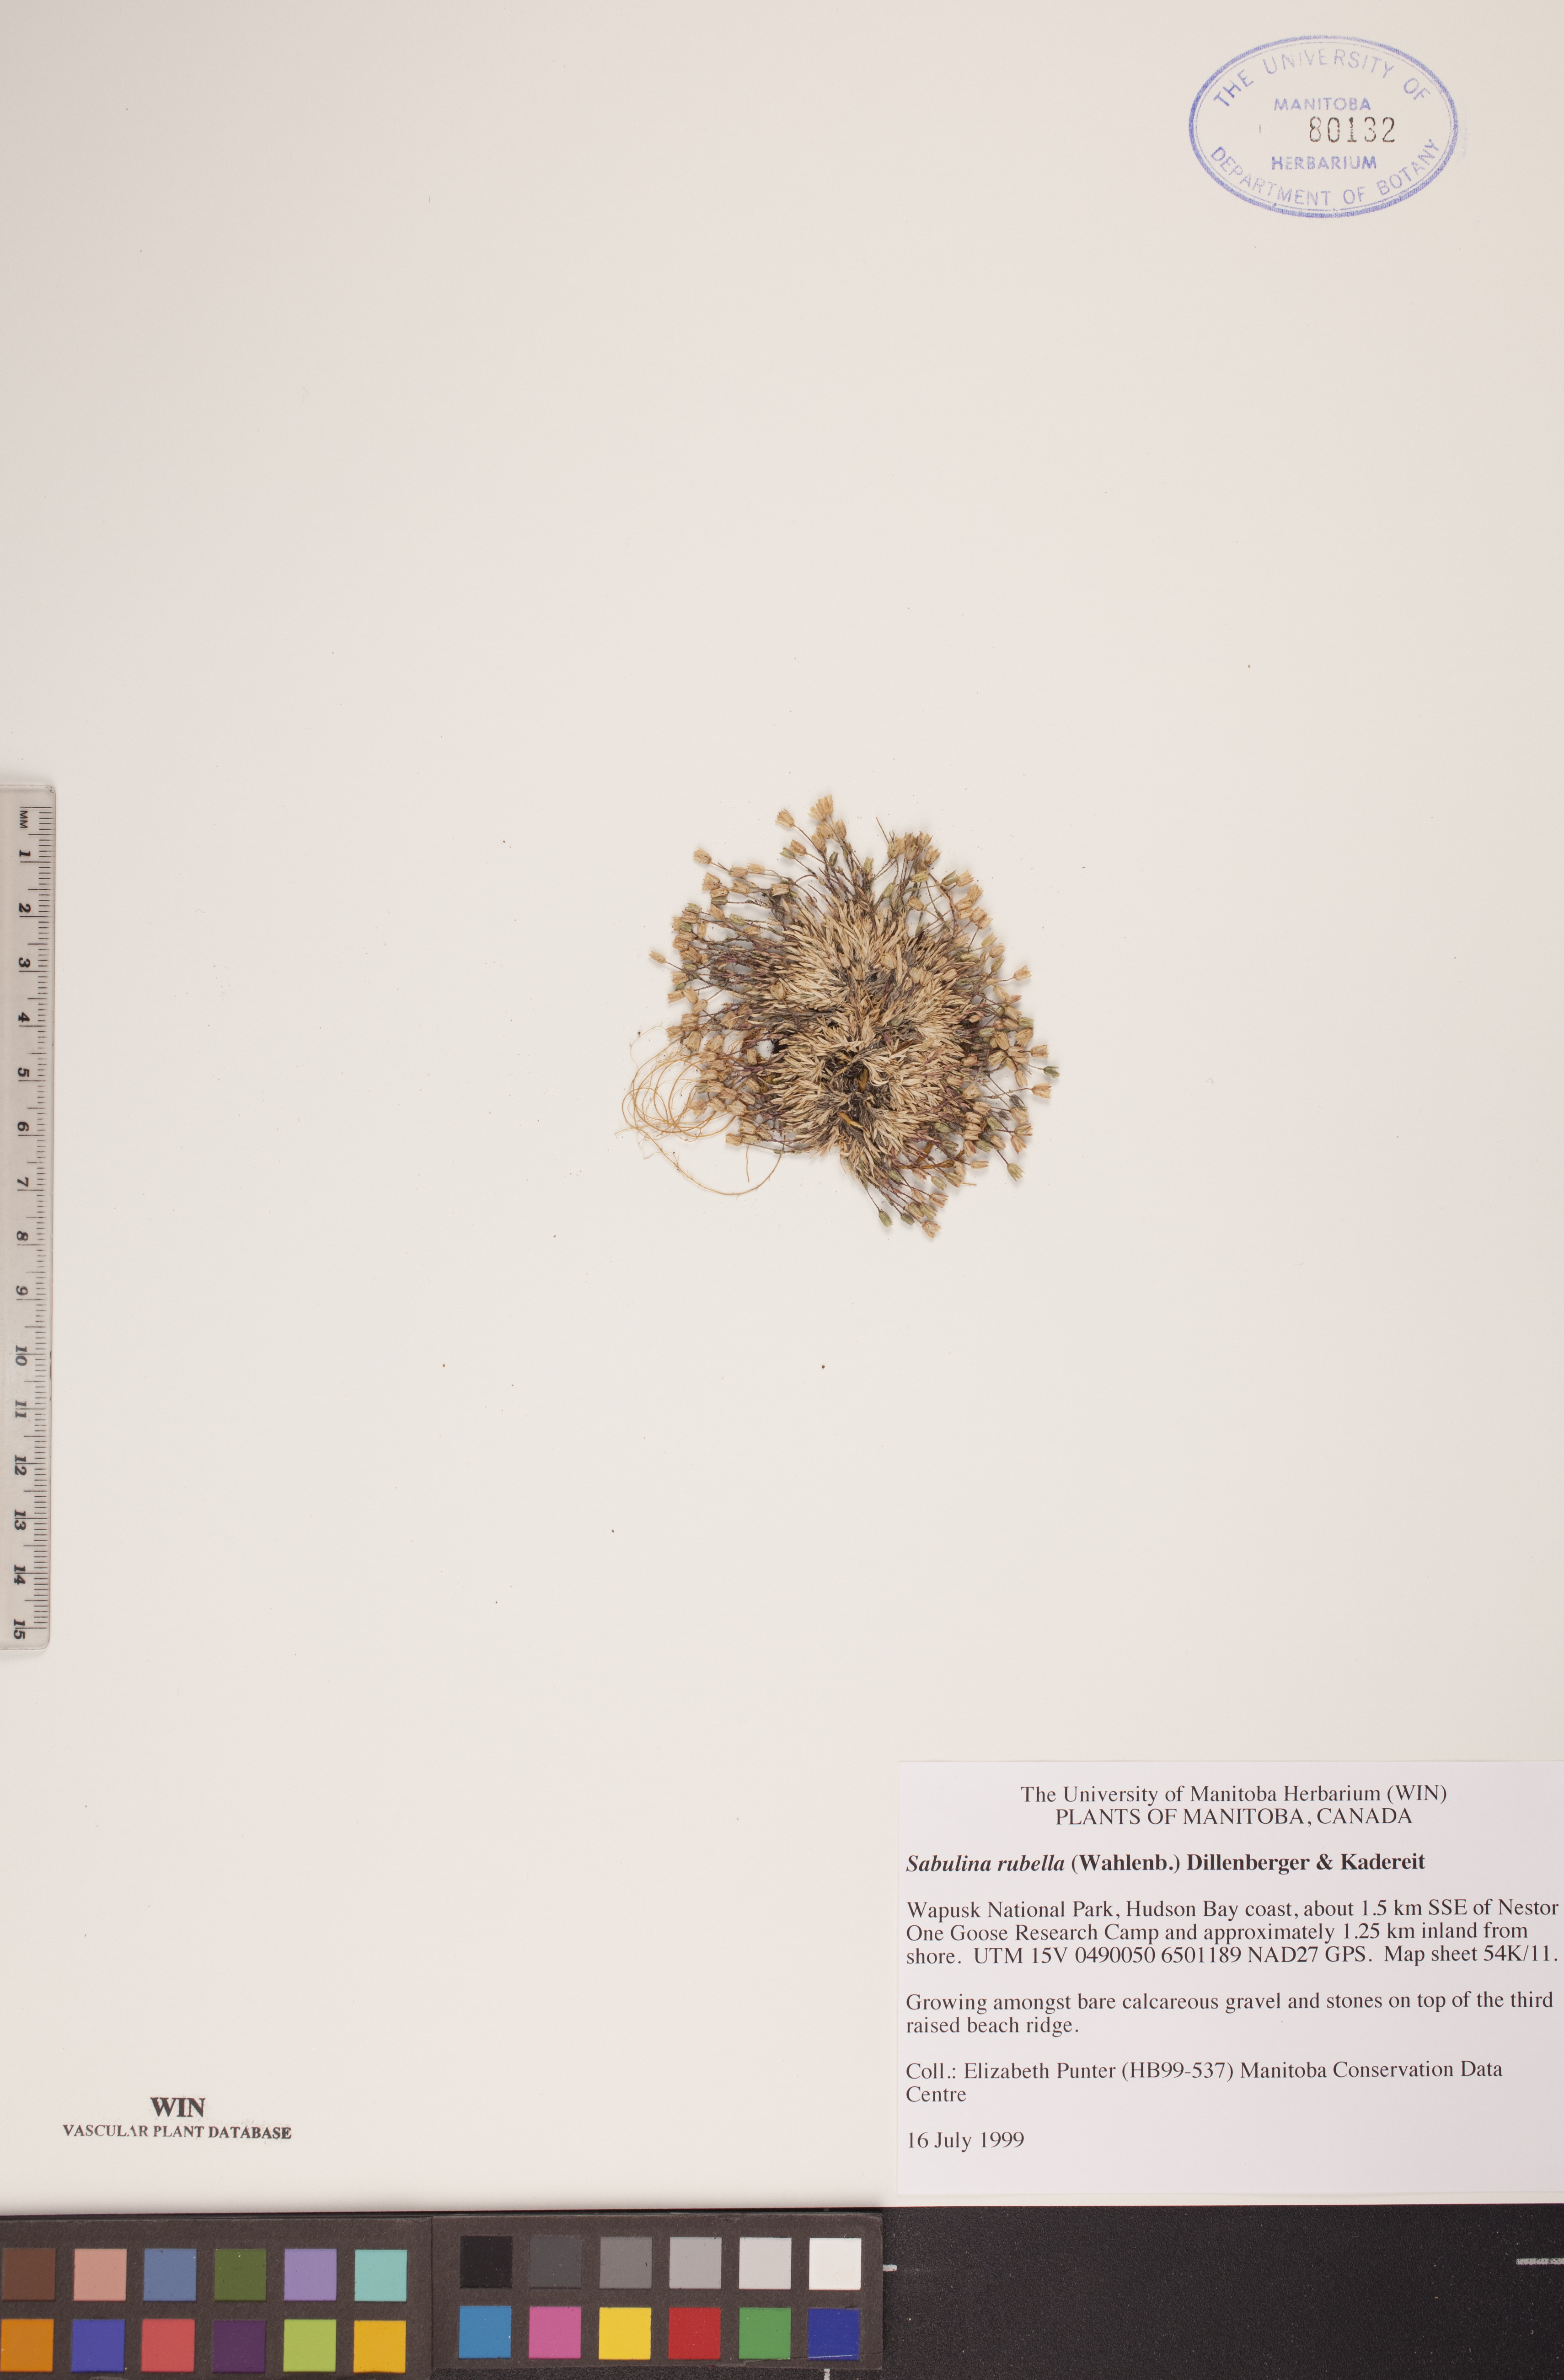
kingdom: Plantae
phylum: Tracheophyta
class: Magnoliopsida
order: Caryophyllales
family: Caryophyllaceae
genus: Sabulina
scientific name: Sabulina rubella
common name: Beautiful sandwort
